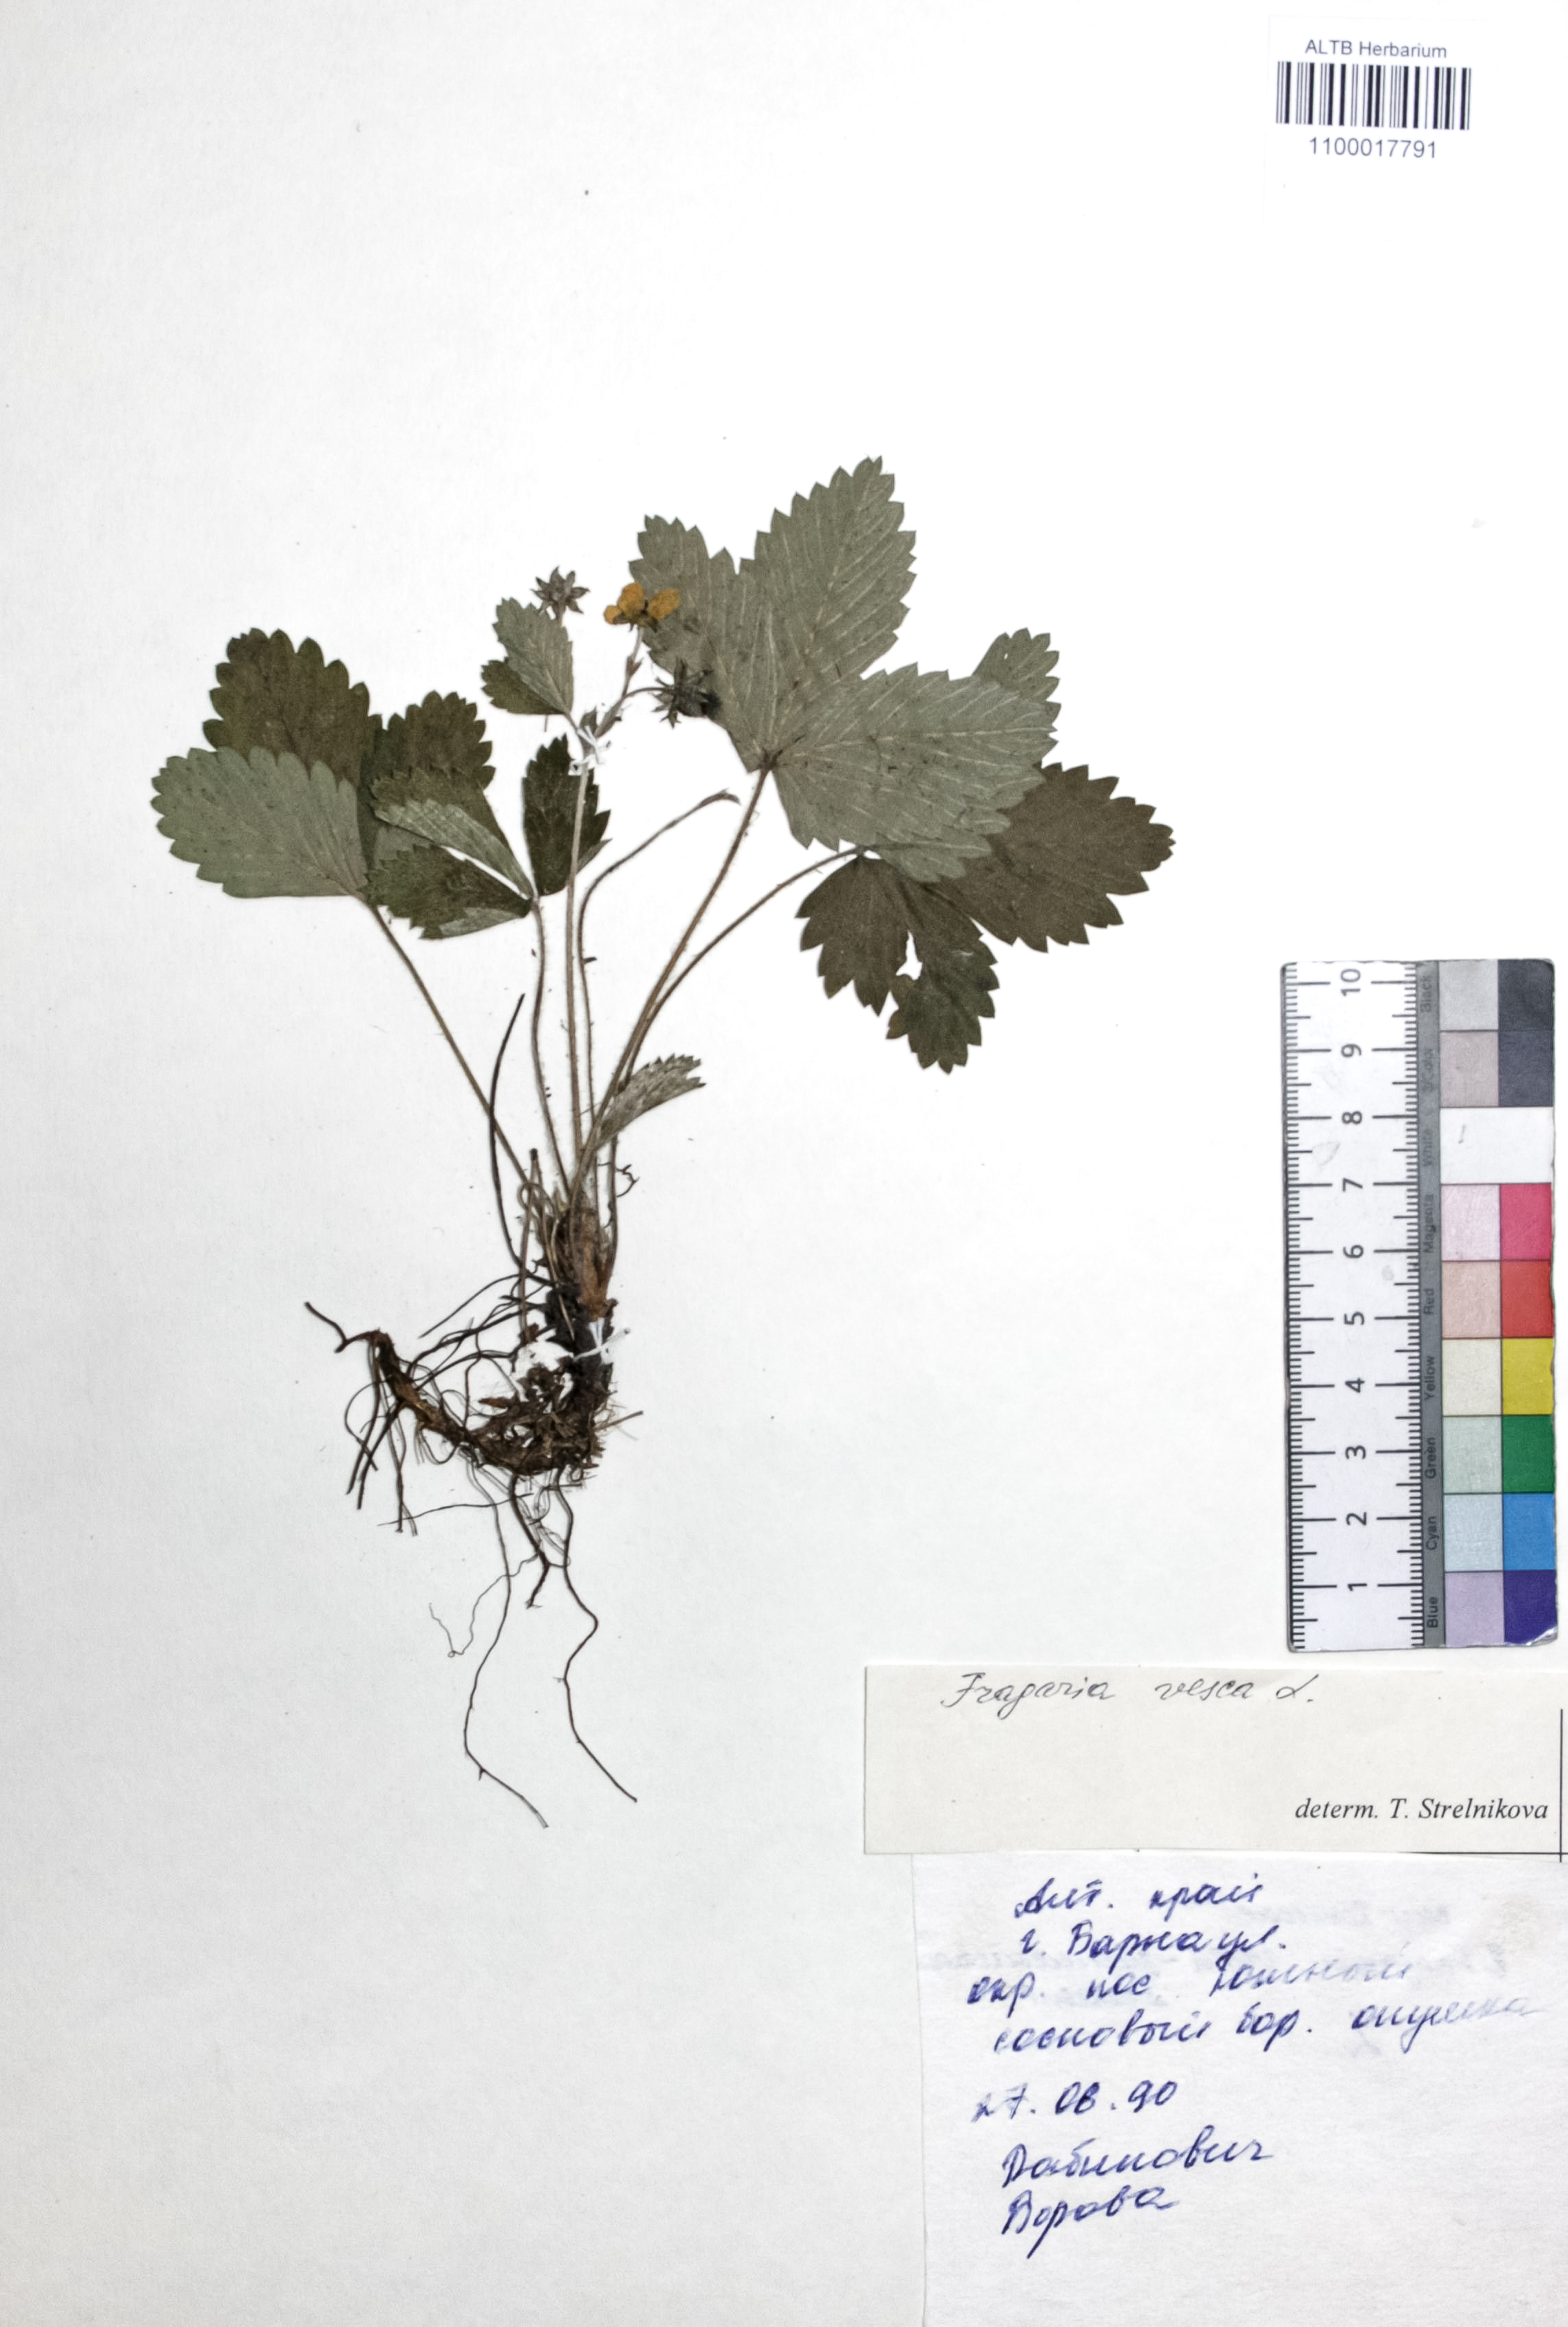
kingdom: Plantae
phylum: Tracheophyta
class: Magnoliopsida
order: Rosales
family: Rosaceae
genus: Fragaria
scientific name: Fragaria vesca
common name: Wild strawberry
